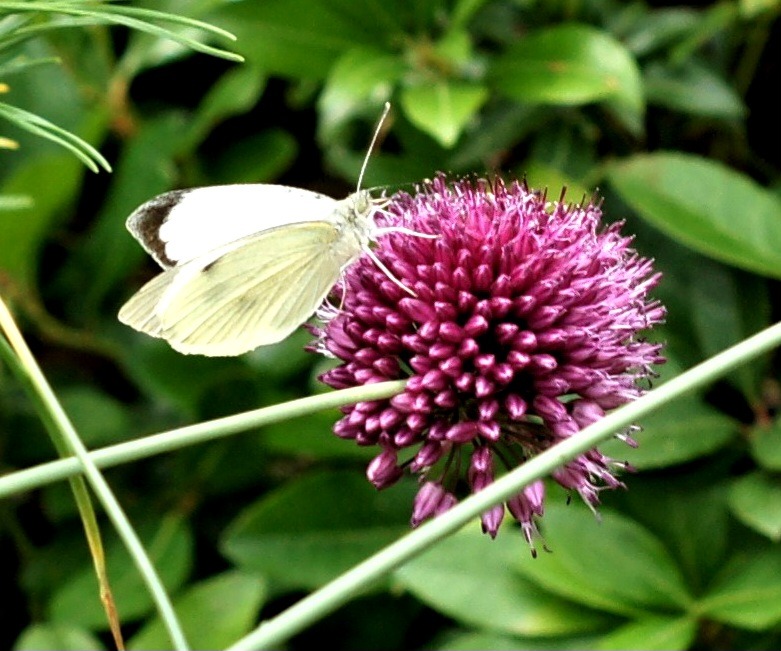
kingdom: Animalia
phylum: Arthropoda
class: Insecta
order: Lepidoptera
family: Pieridae
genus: Pieris
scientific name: Pieris brassicae
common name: Stor kålsommerfugl
